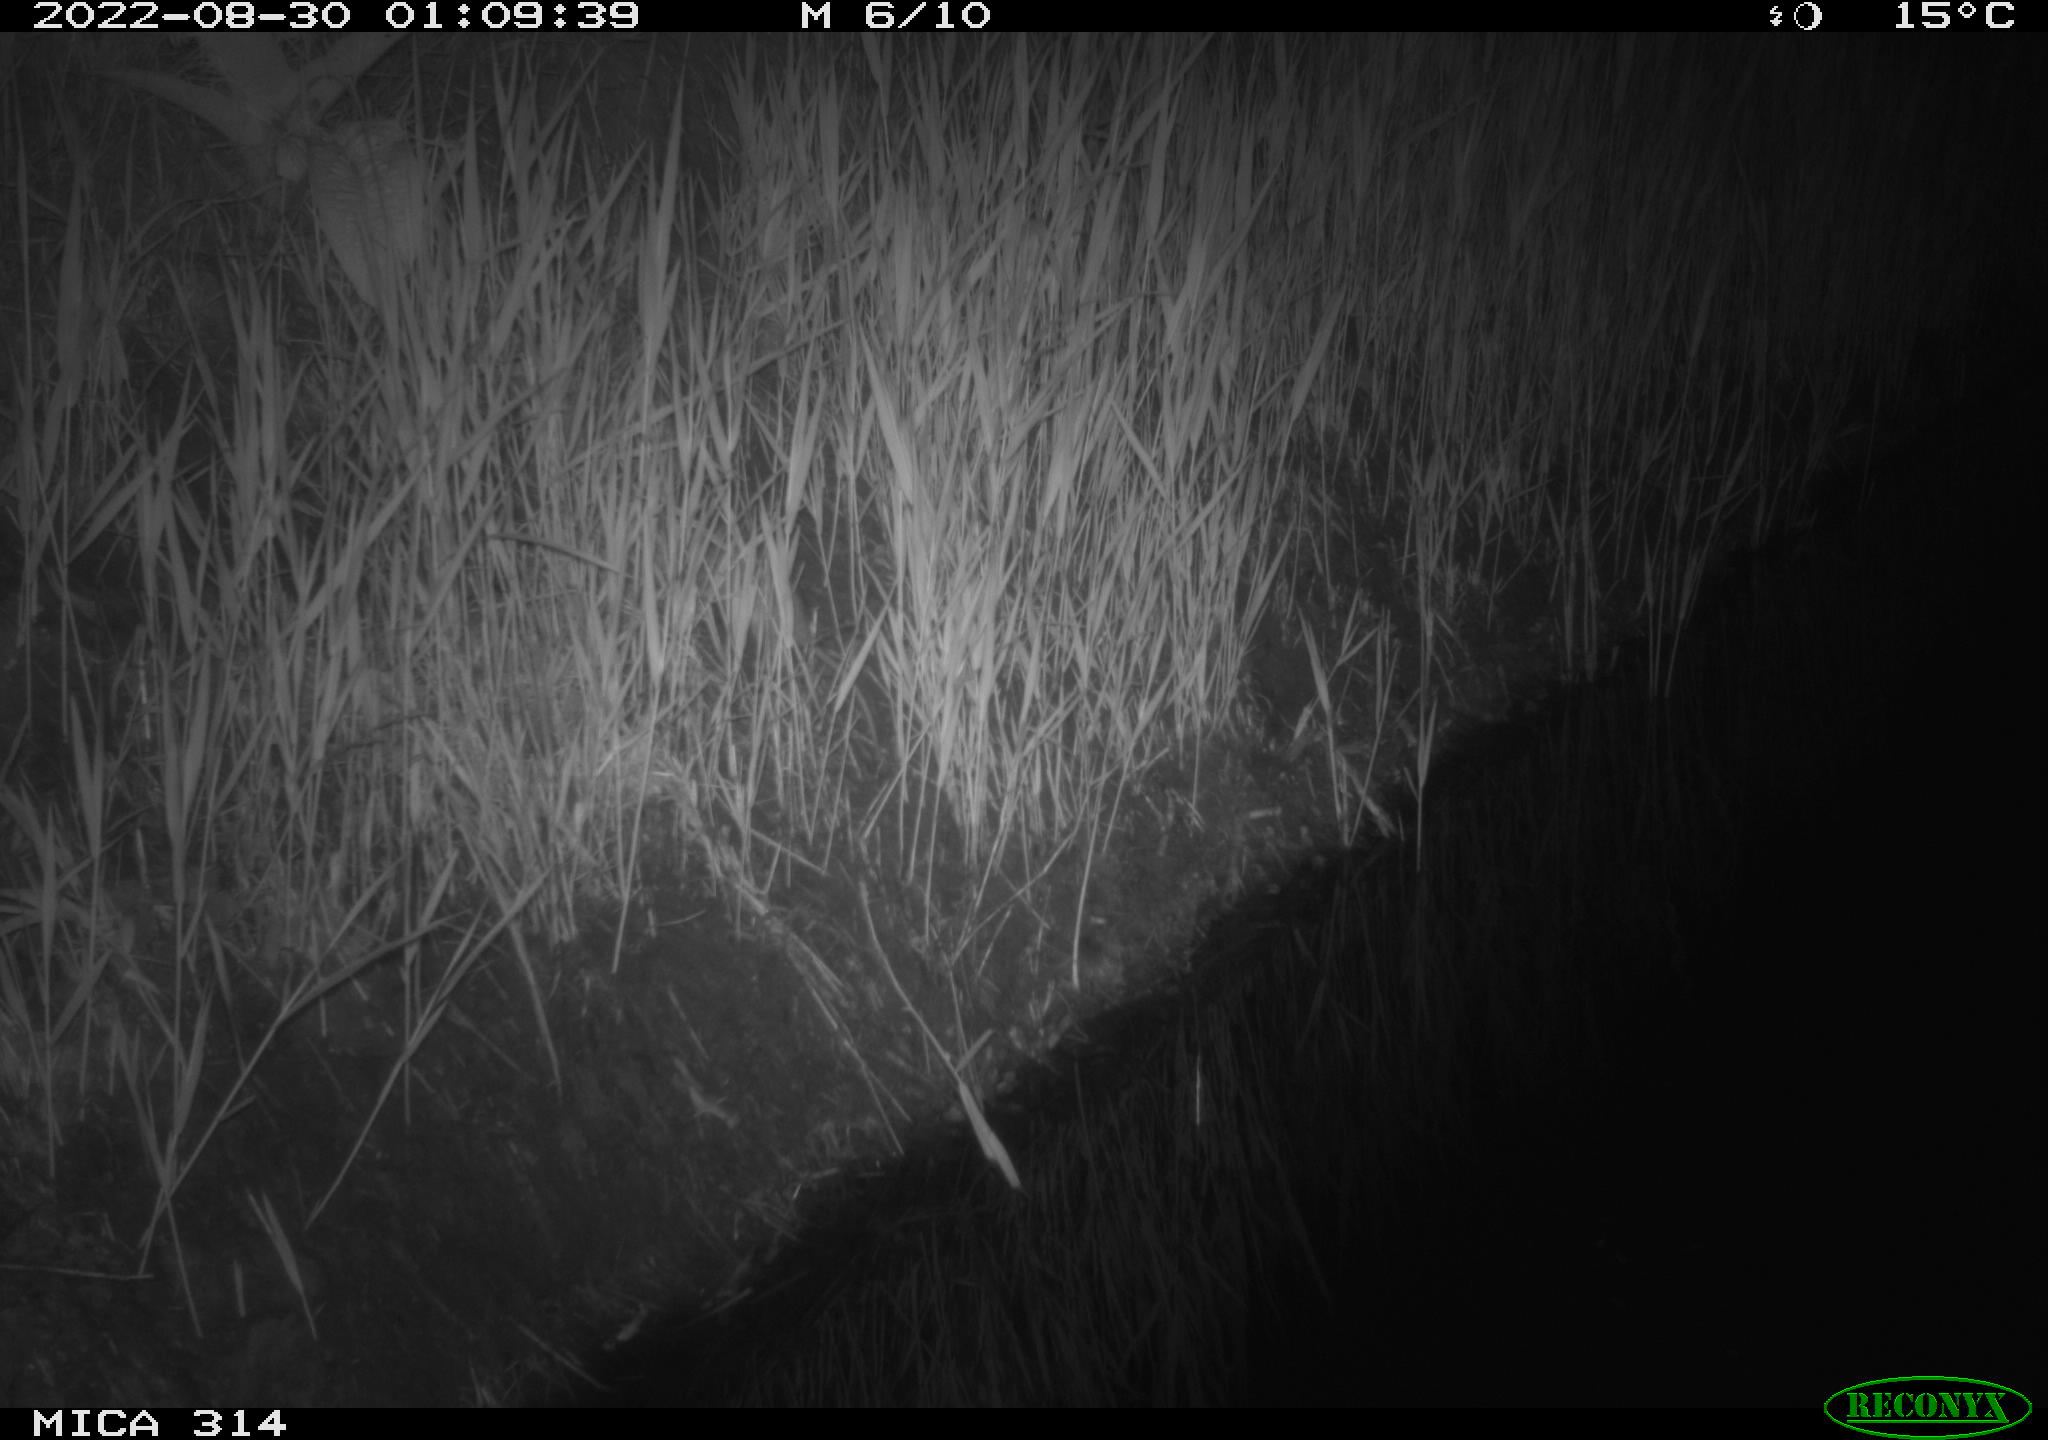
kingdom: Animalia
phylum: Chordata
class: Mammalia
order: Rodentia
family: Muridae
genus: Rattus
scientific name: Rattus norvegicus
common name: Brown rat
